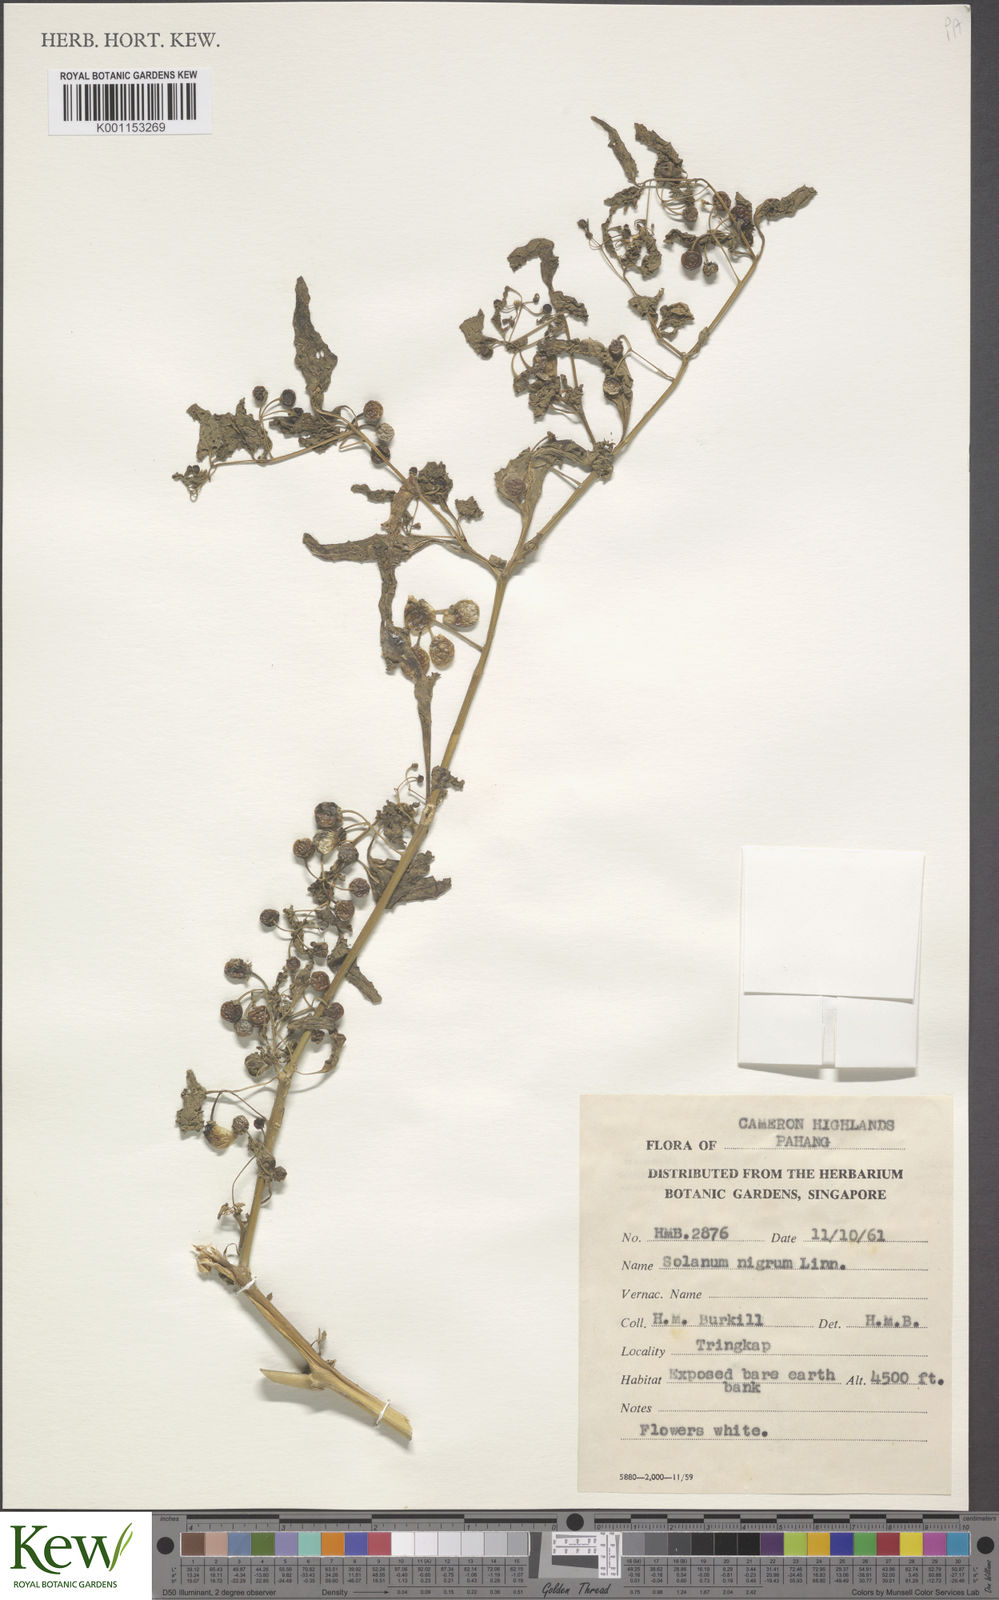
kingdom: Plantae
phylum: Tracheophyta
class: Magnoliopsida
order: Solanales
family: Solanaceae
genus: Solanum
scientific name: Solanum americanum
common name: American black nightshade
